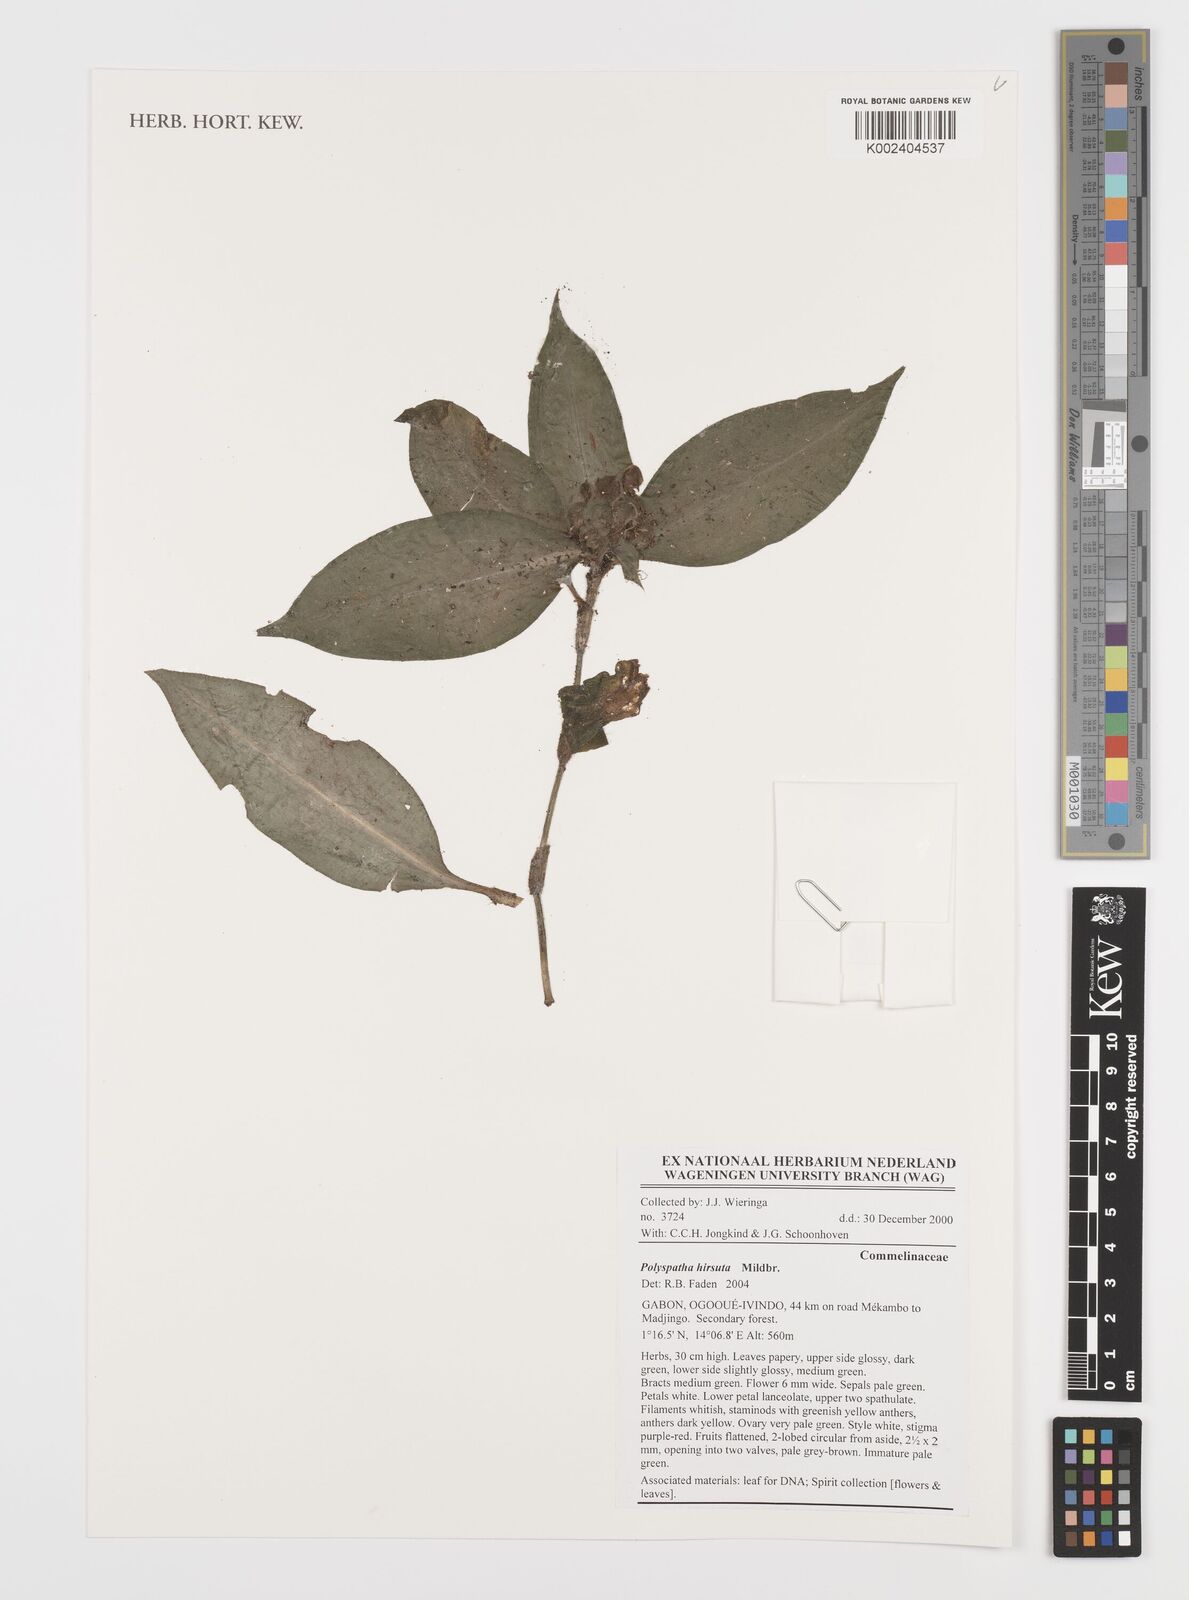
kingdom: Plantae
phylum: Tracheophyta
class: Liliopsida
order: Commelinales
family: Commelinaceae
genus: Polyspatha
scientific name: Polyspatha hirsuta
